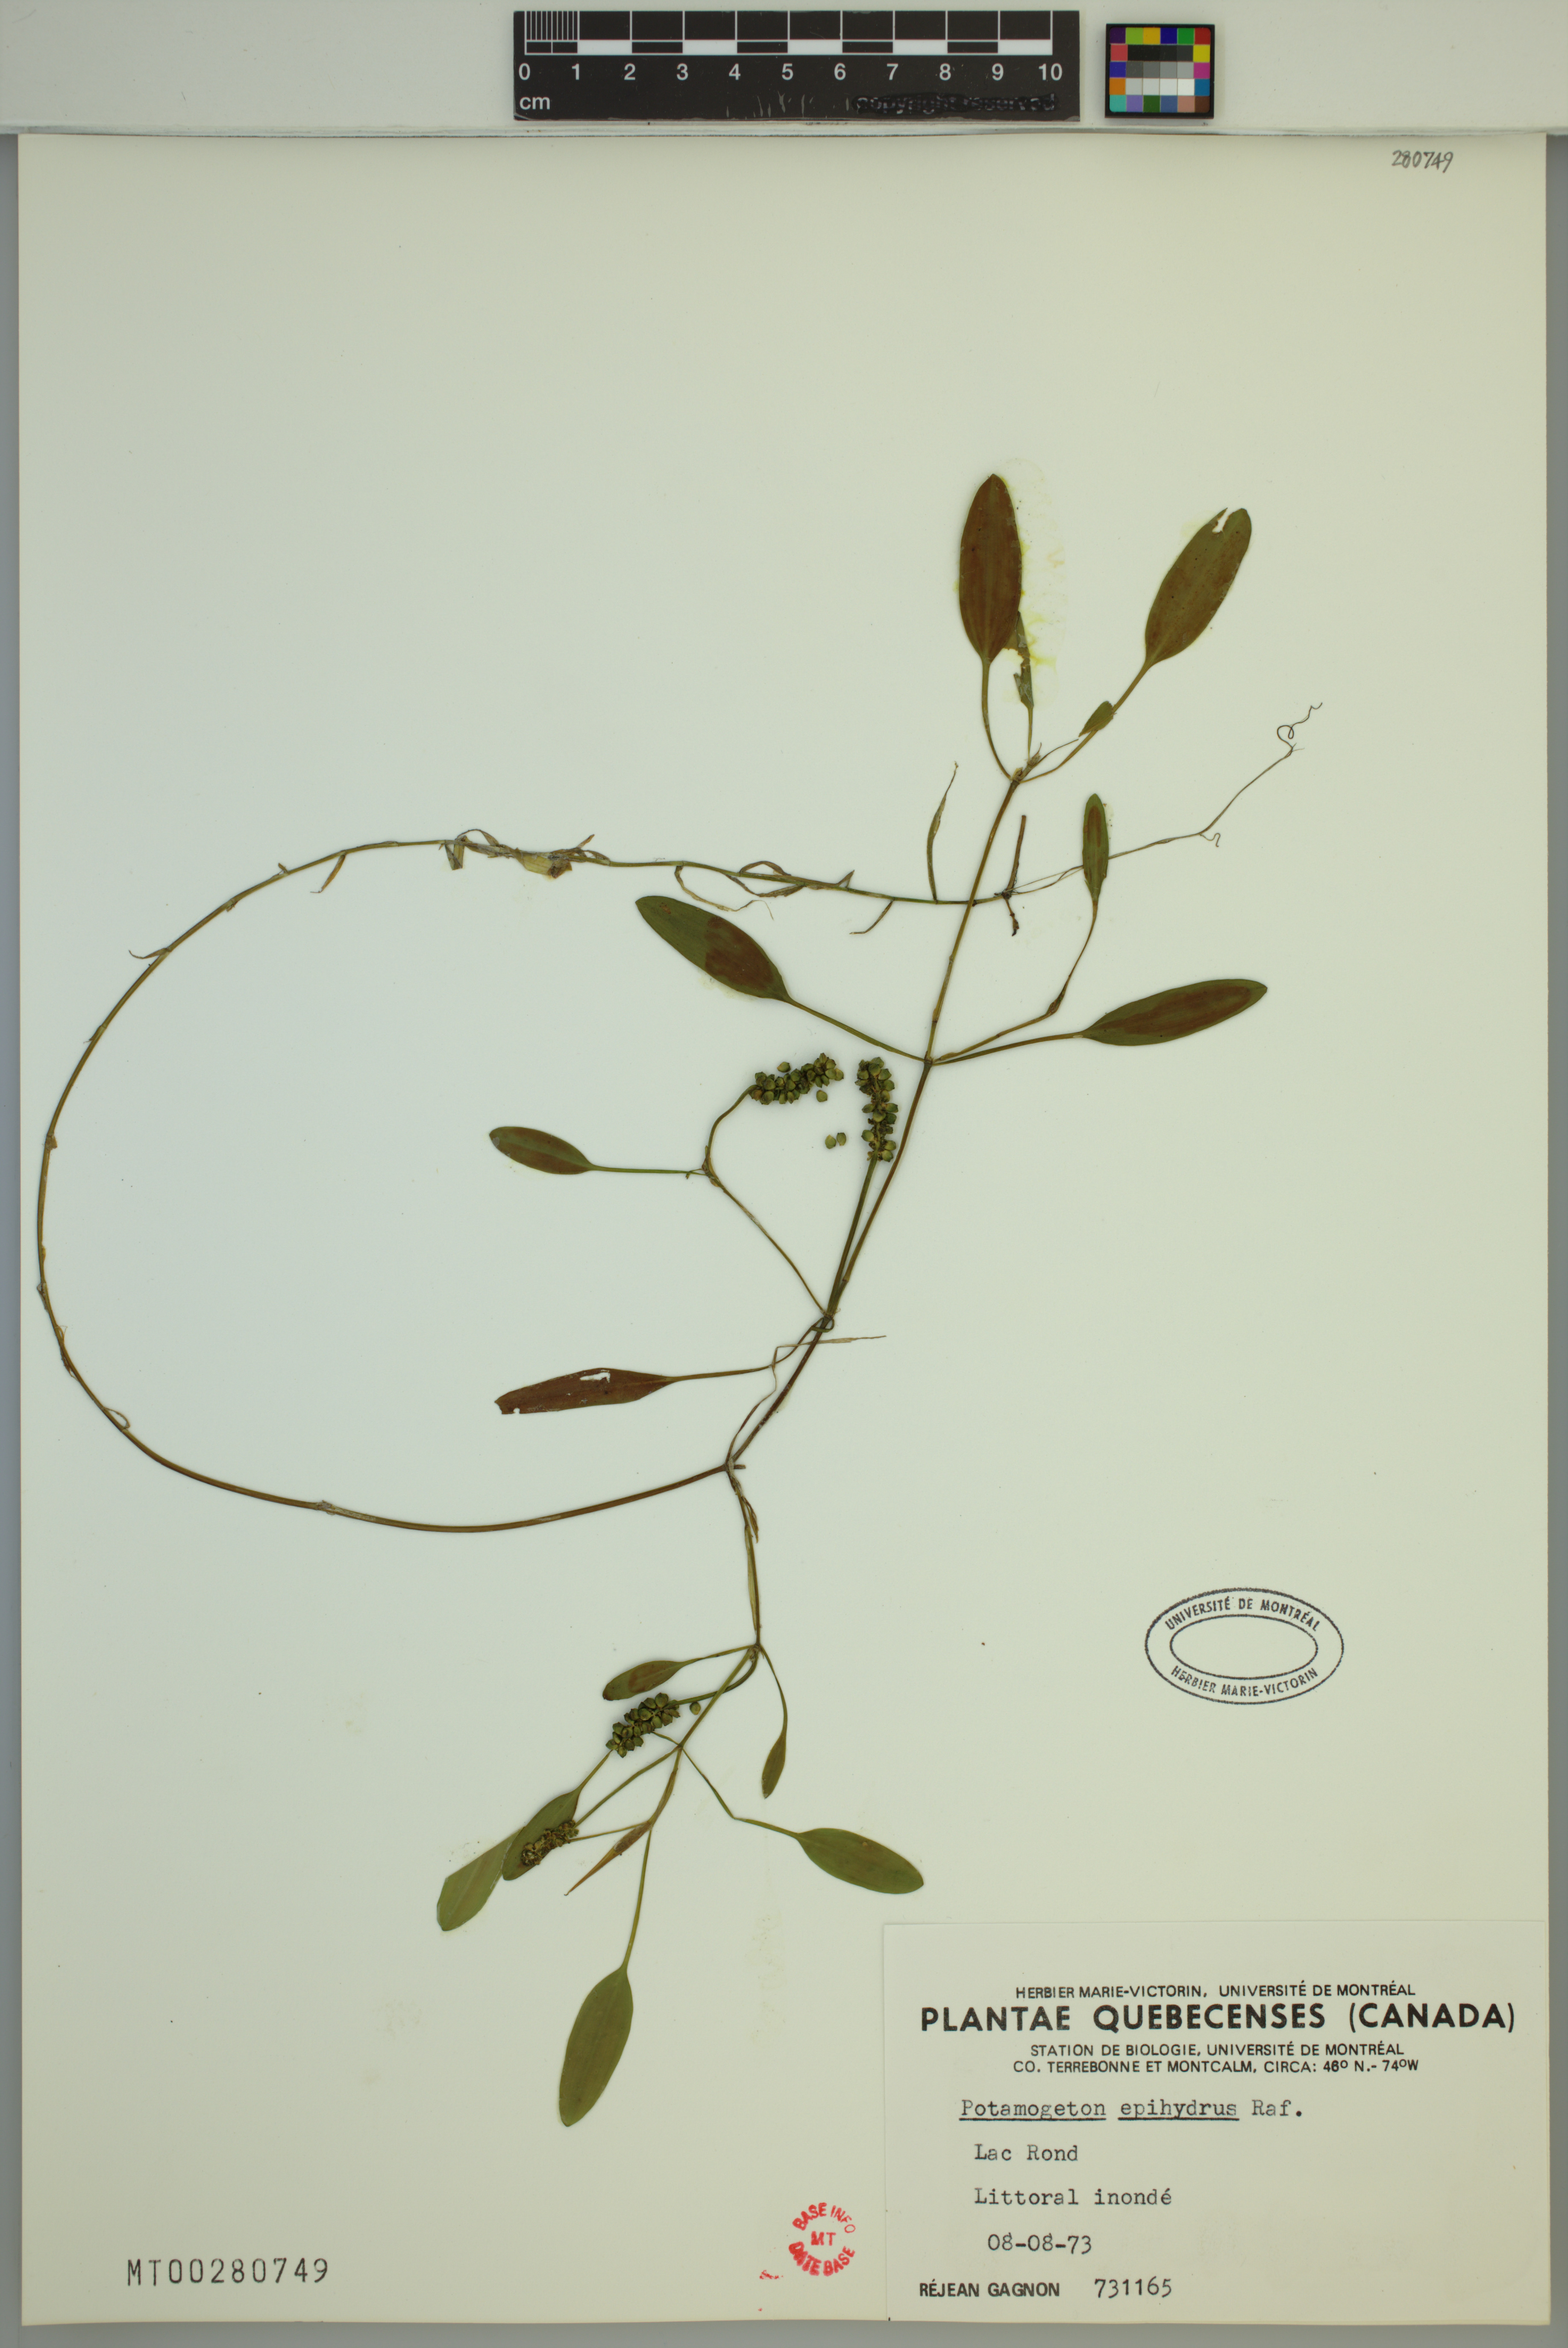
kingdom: Plantae
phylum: Tracheophyta
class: Liliopsida
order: Alismatales
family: Potamogetonaceae
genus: Potamogeton
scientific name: Potamogeton epihydrus
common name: American pondweed
